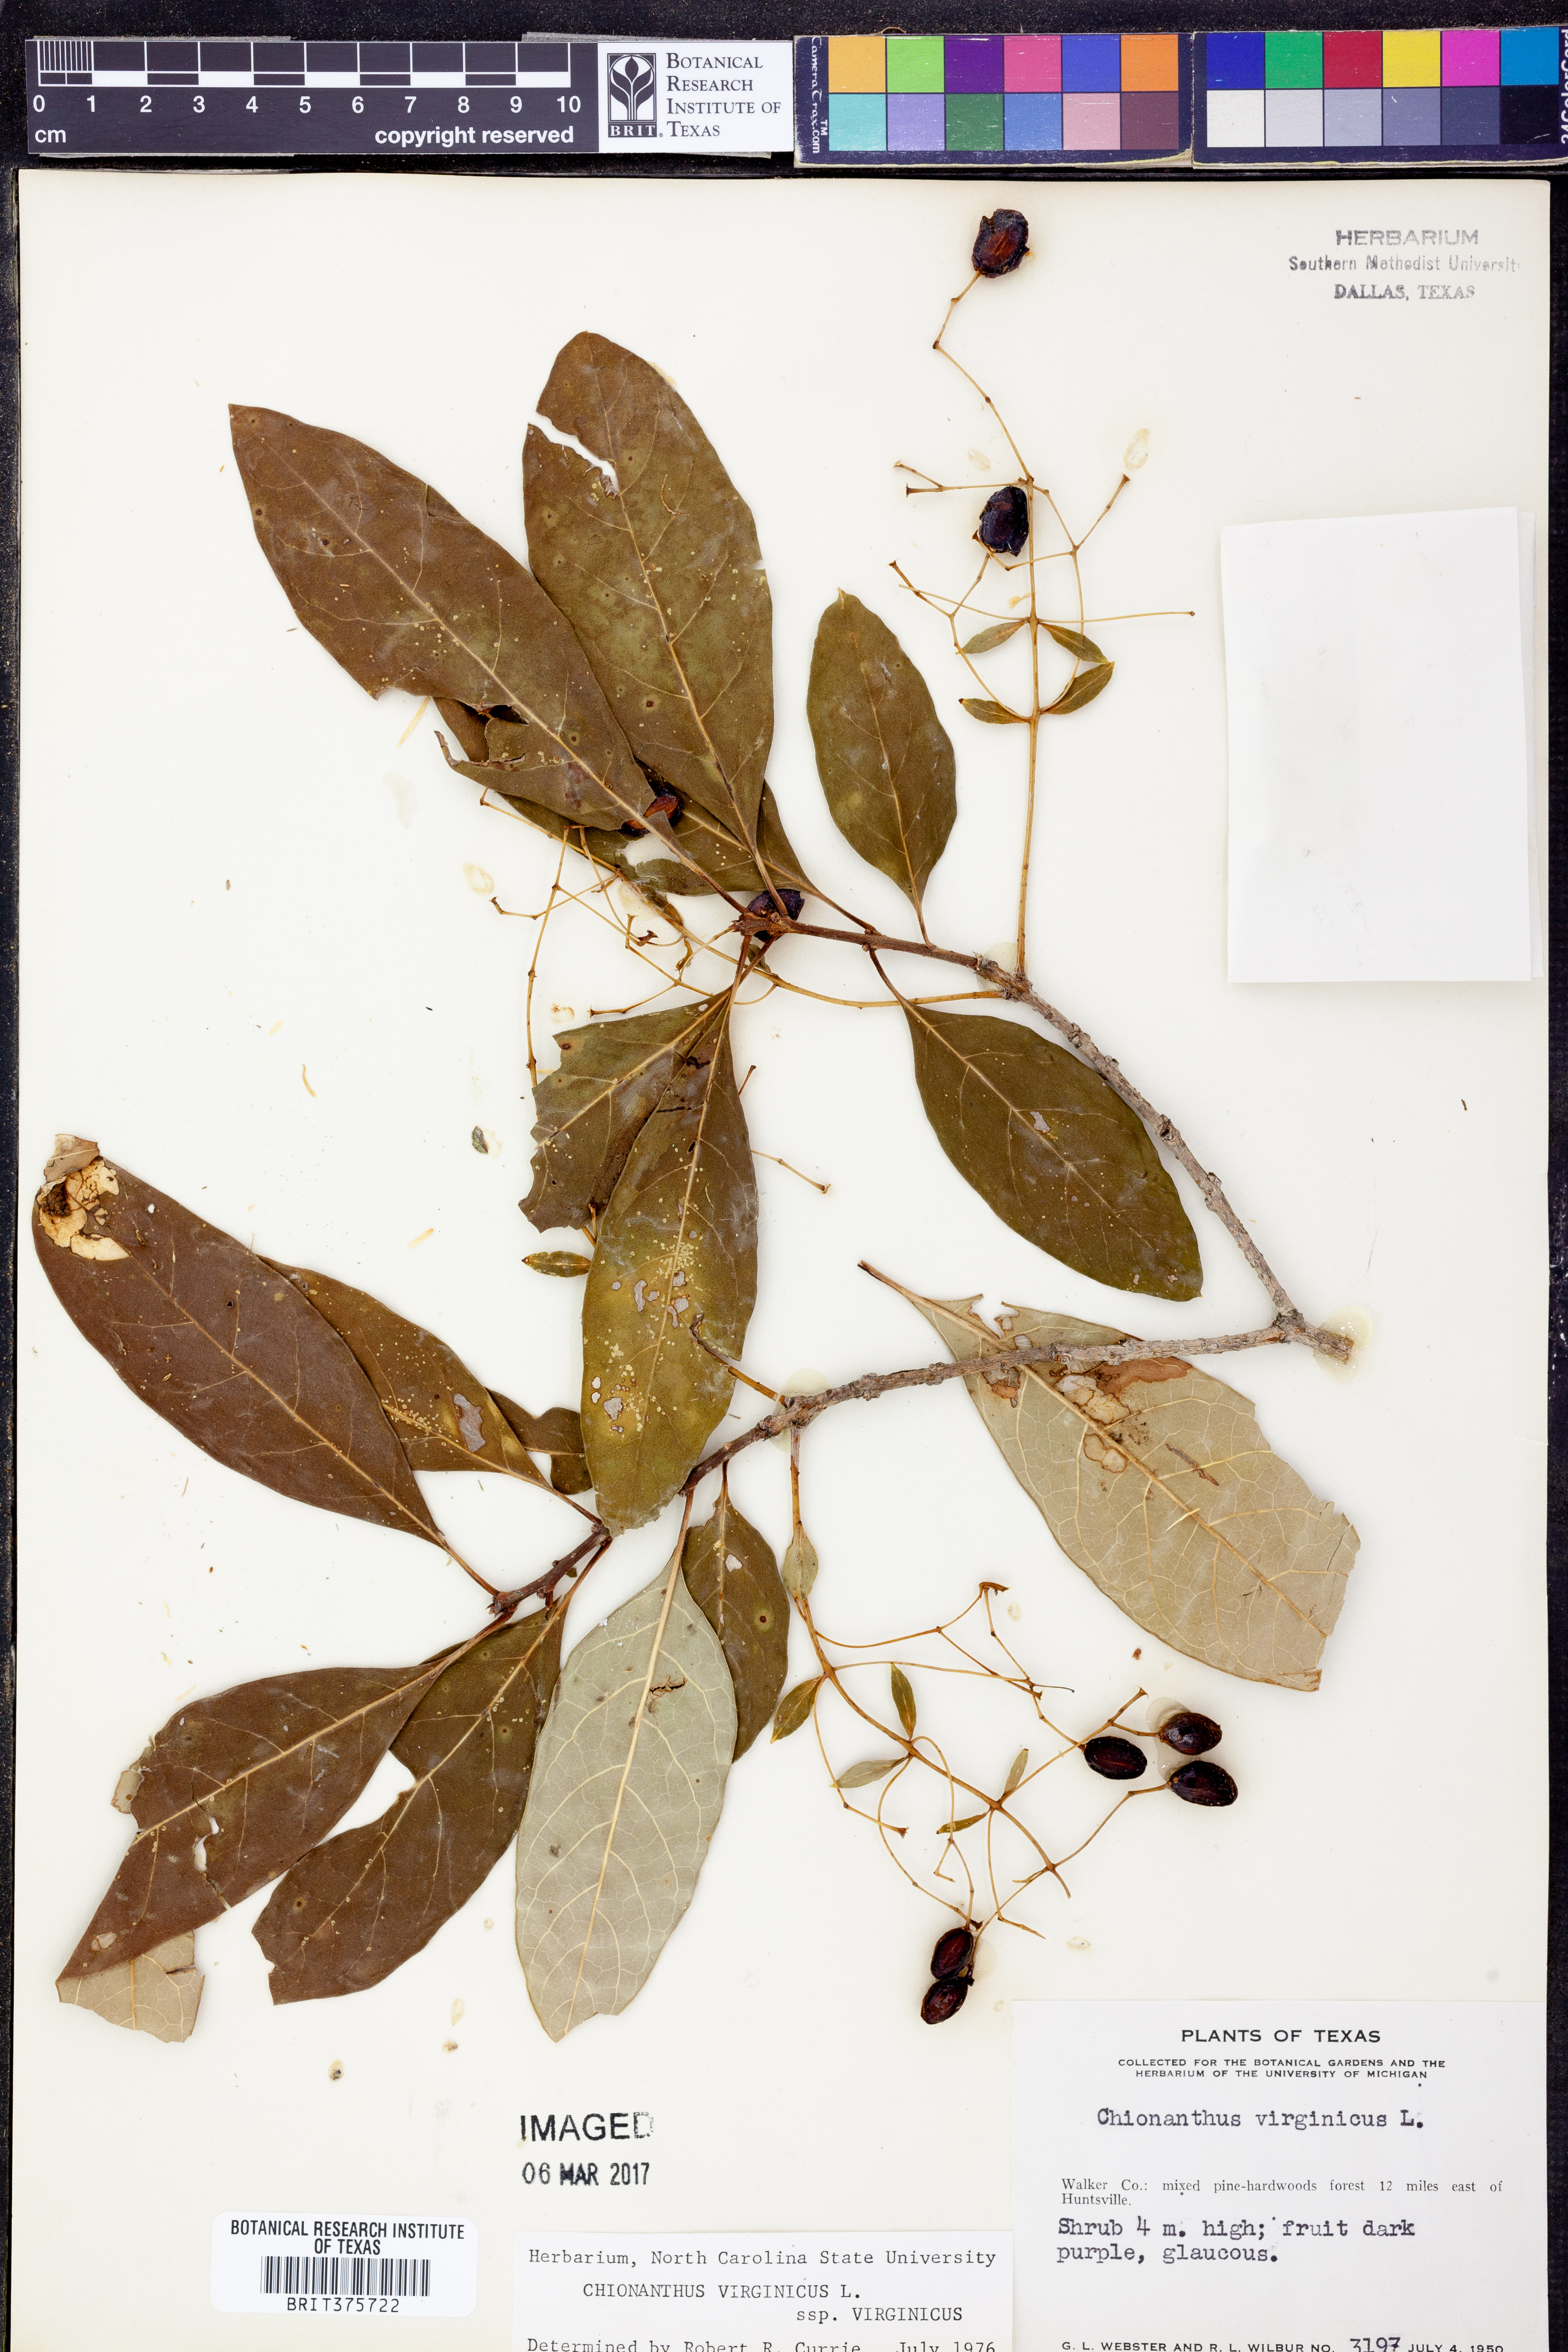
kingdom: Plantae
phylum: Tracheophyta
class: Magnoliopsida
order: Lamiales
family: Oleaceae
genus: Chionanthus
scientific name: Chionanthus virginicus
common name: American fringetree
